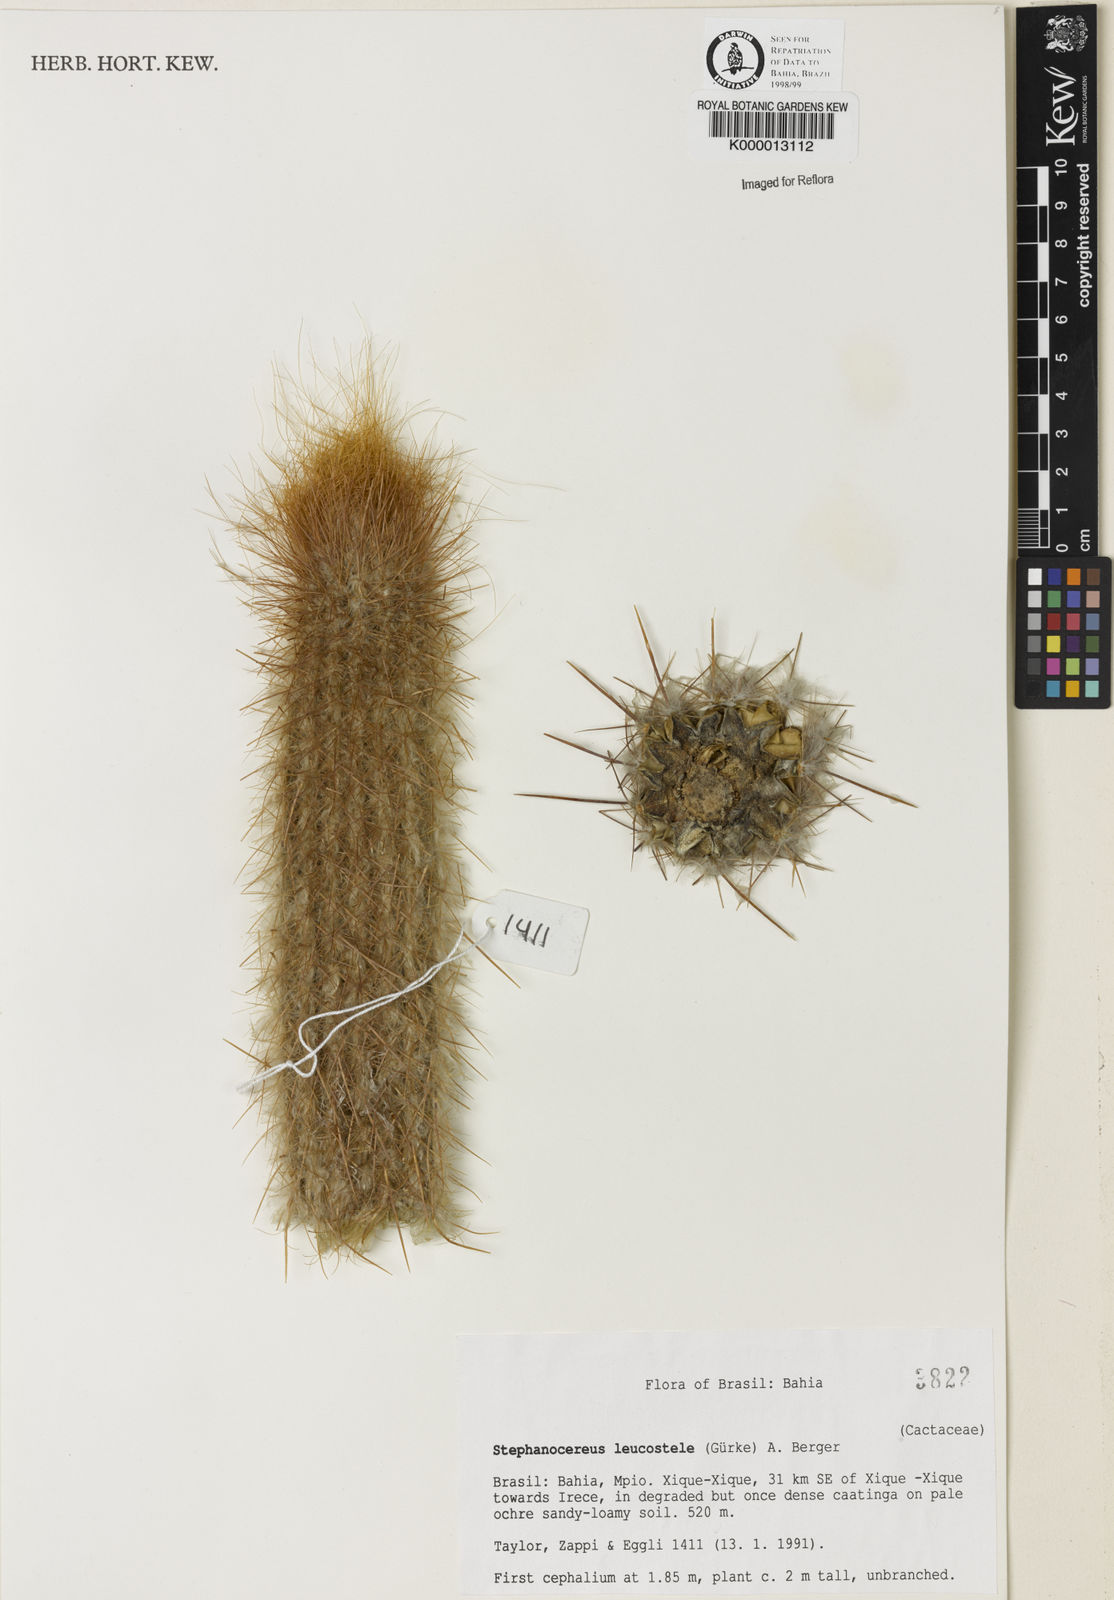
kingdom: Plantae
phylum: Tracheophyta
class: Magnoliopsida
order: Caryophyllales
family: Cactaceae
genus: Arrojadoa
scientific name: Arrojadoa leucostele
